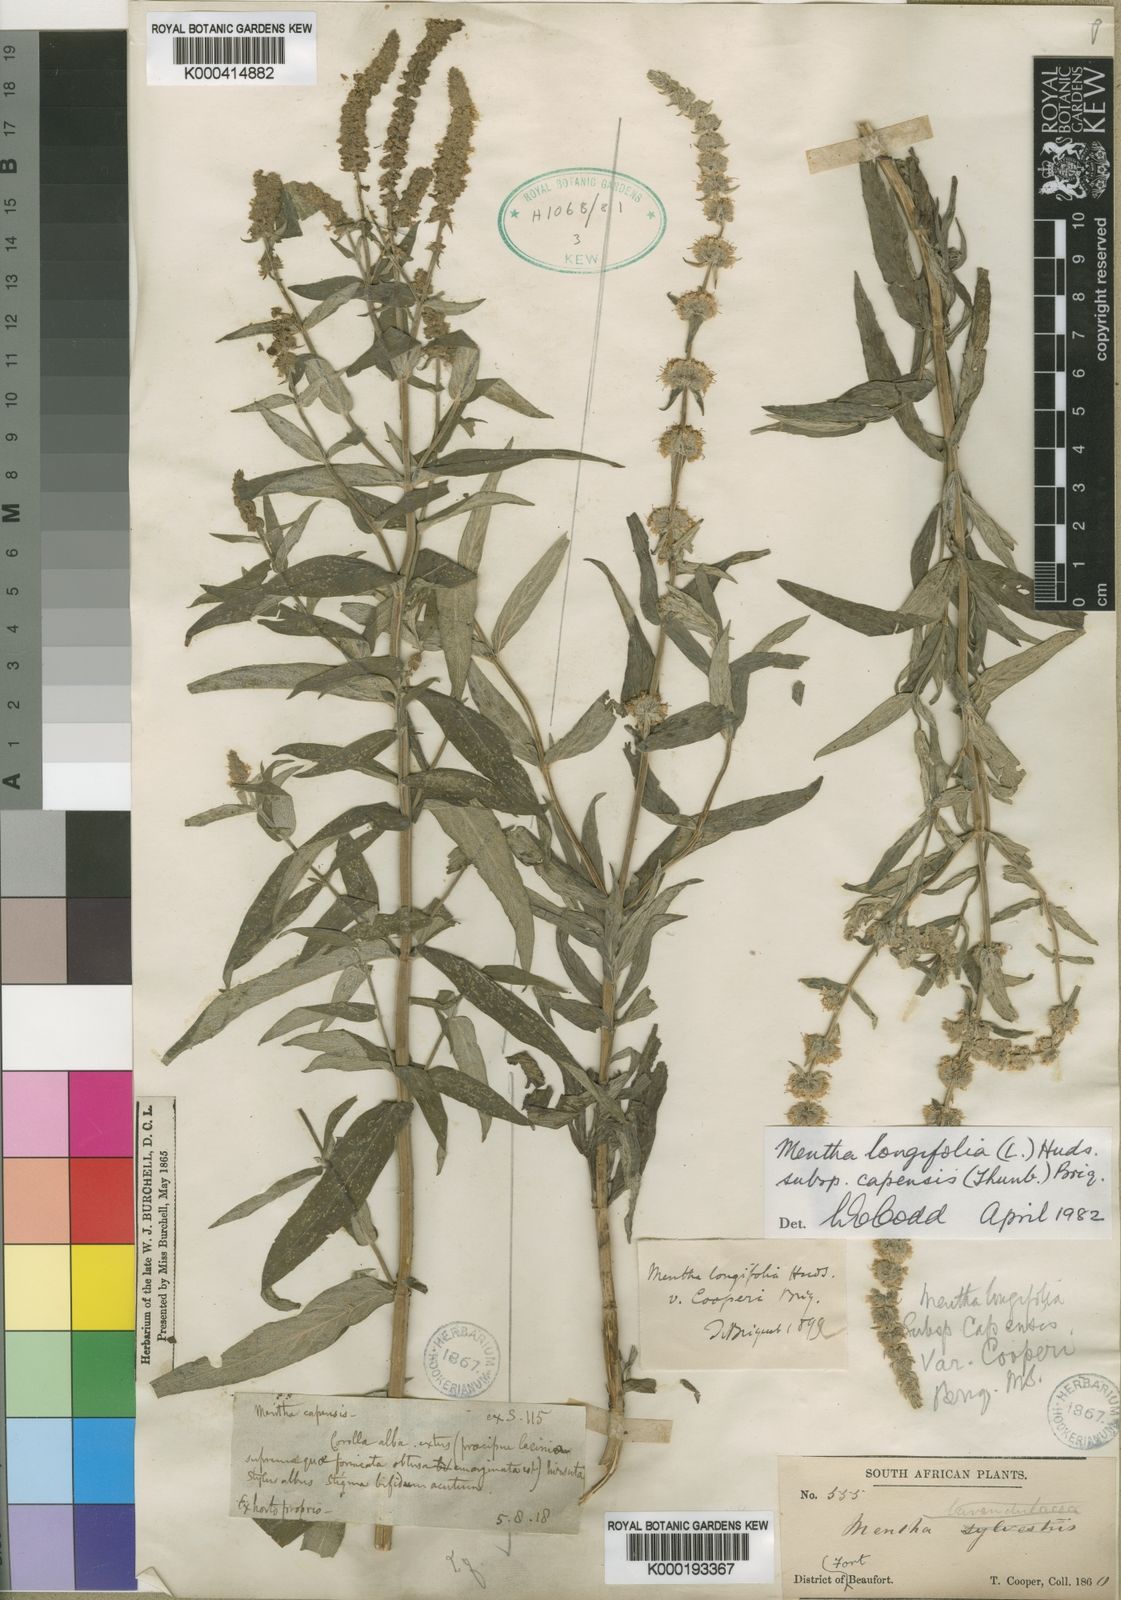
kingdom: Plantae
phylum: Tracheophyta
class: Magnoliopsida
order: Lamiales
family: Lamiaceae
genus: Mentha
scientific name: Mentha
